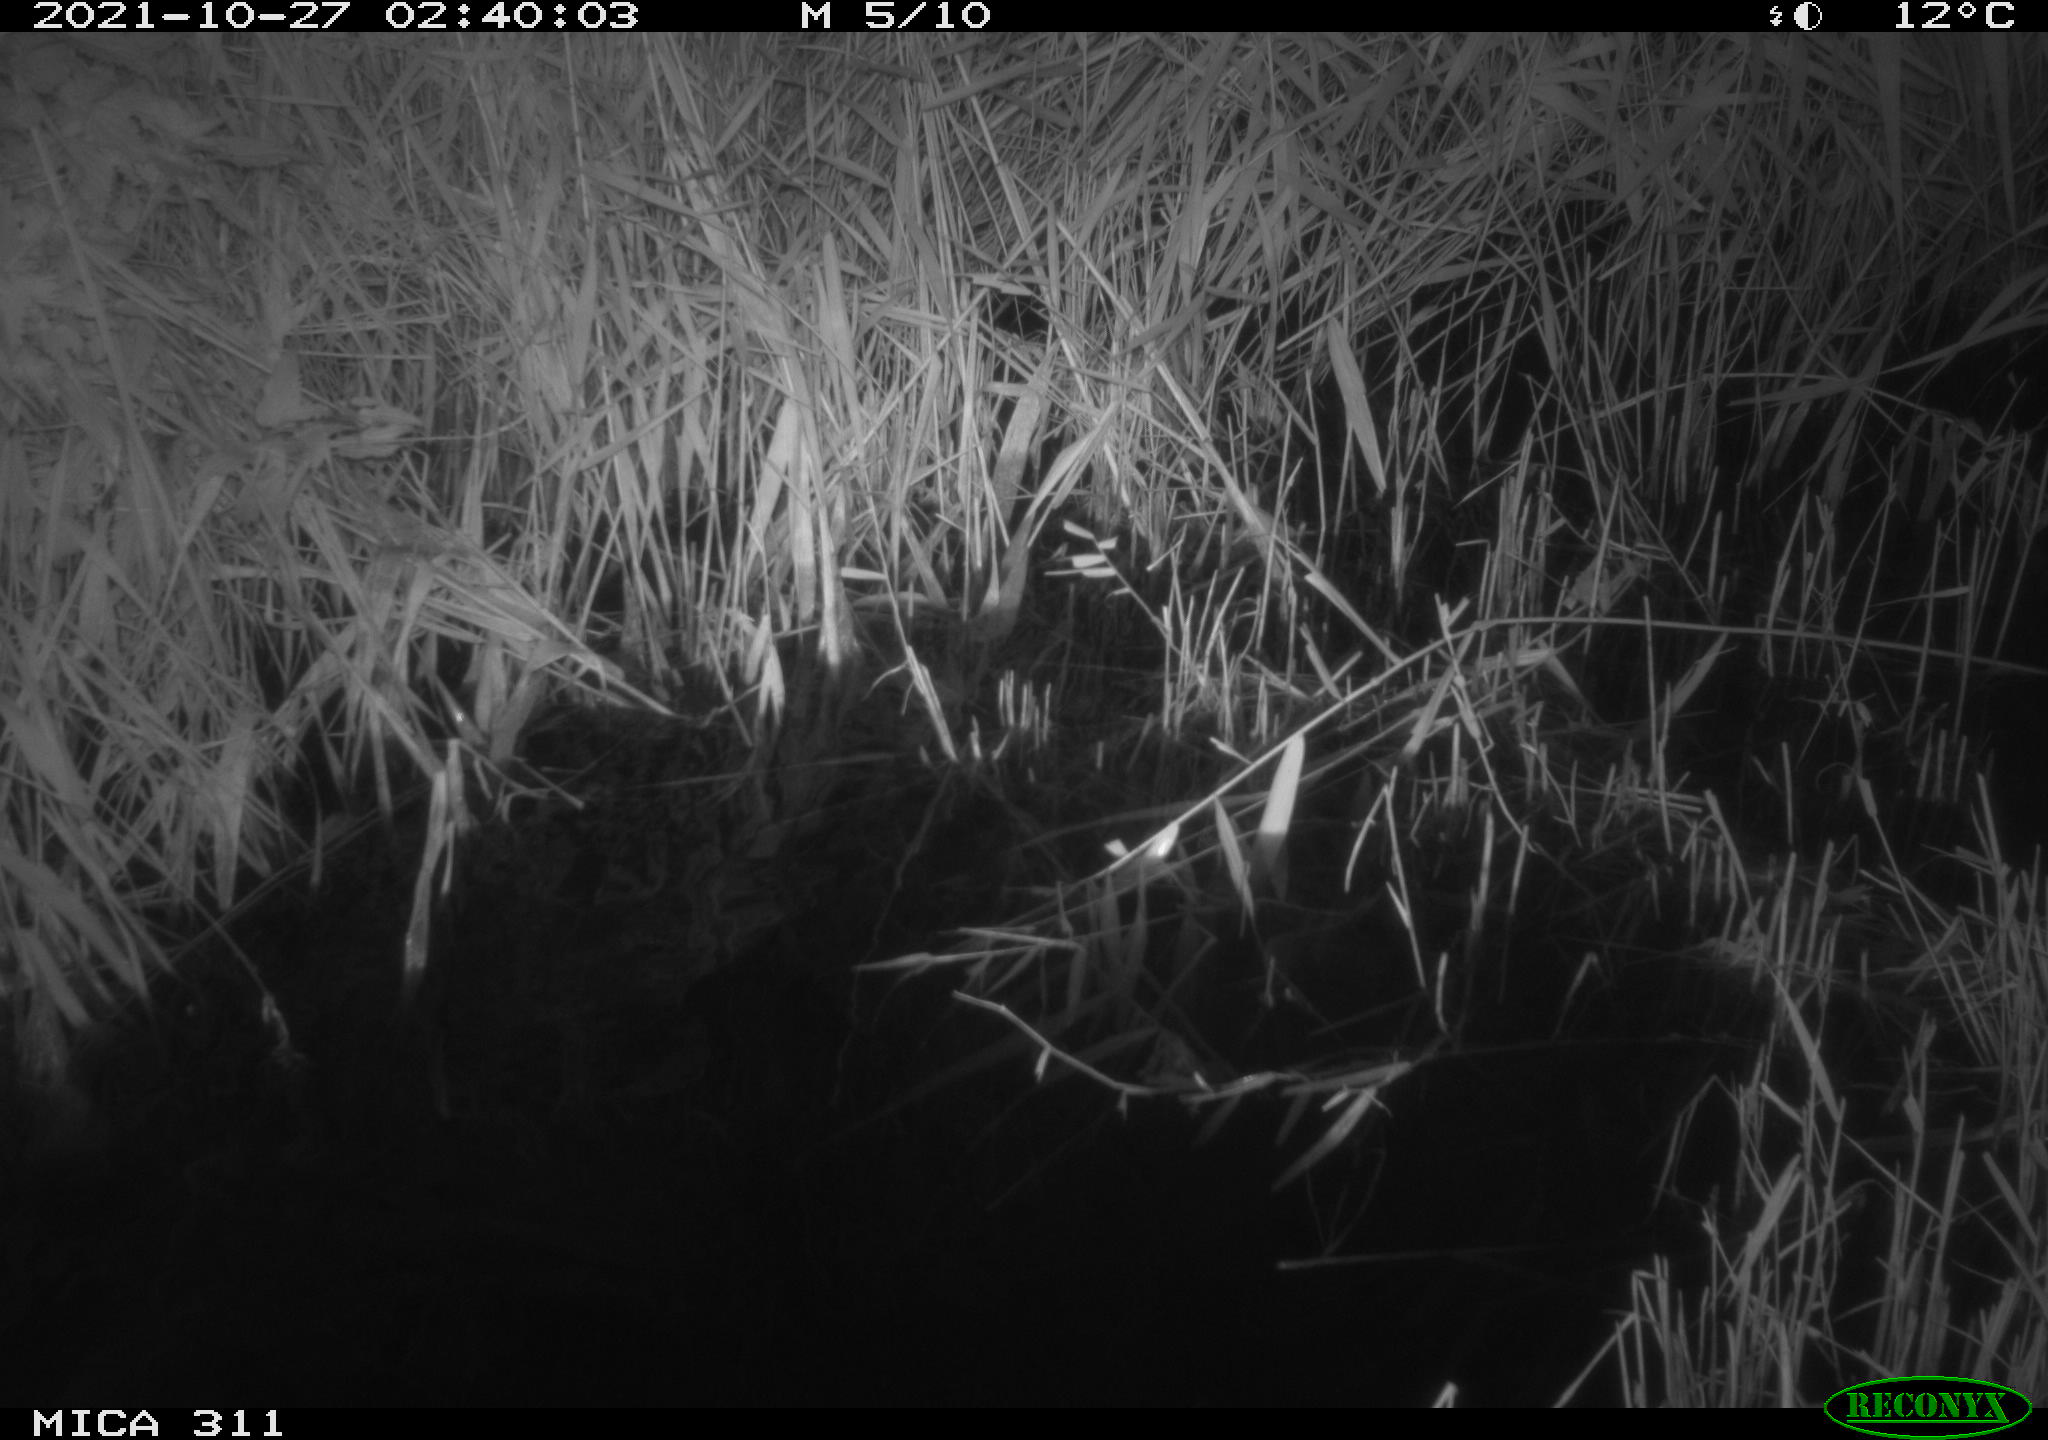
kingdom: Animalia
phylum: Chordata
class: Mammalia
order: Rodentia
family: Muridae
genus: Rattus
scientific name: Rattus norvegicus
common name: Brown rat
